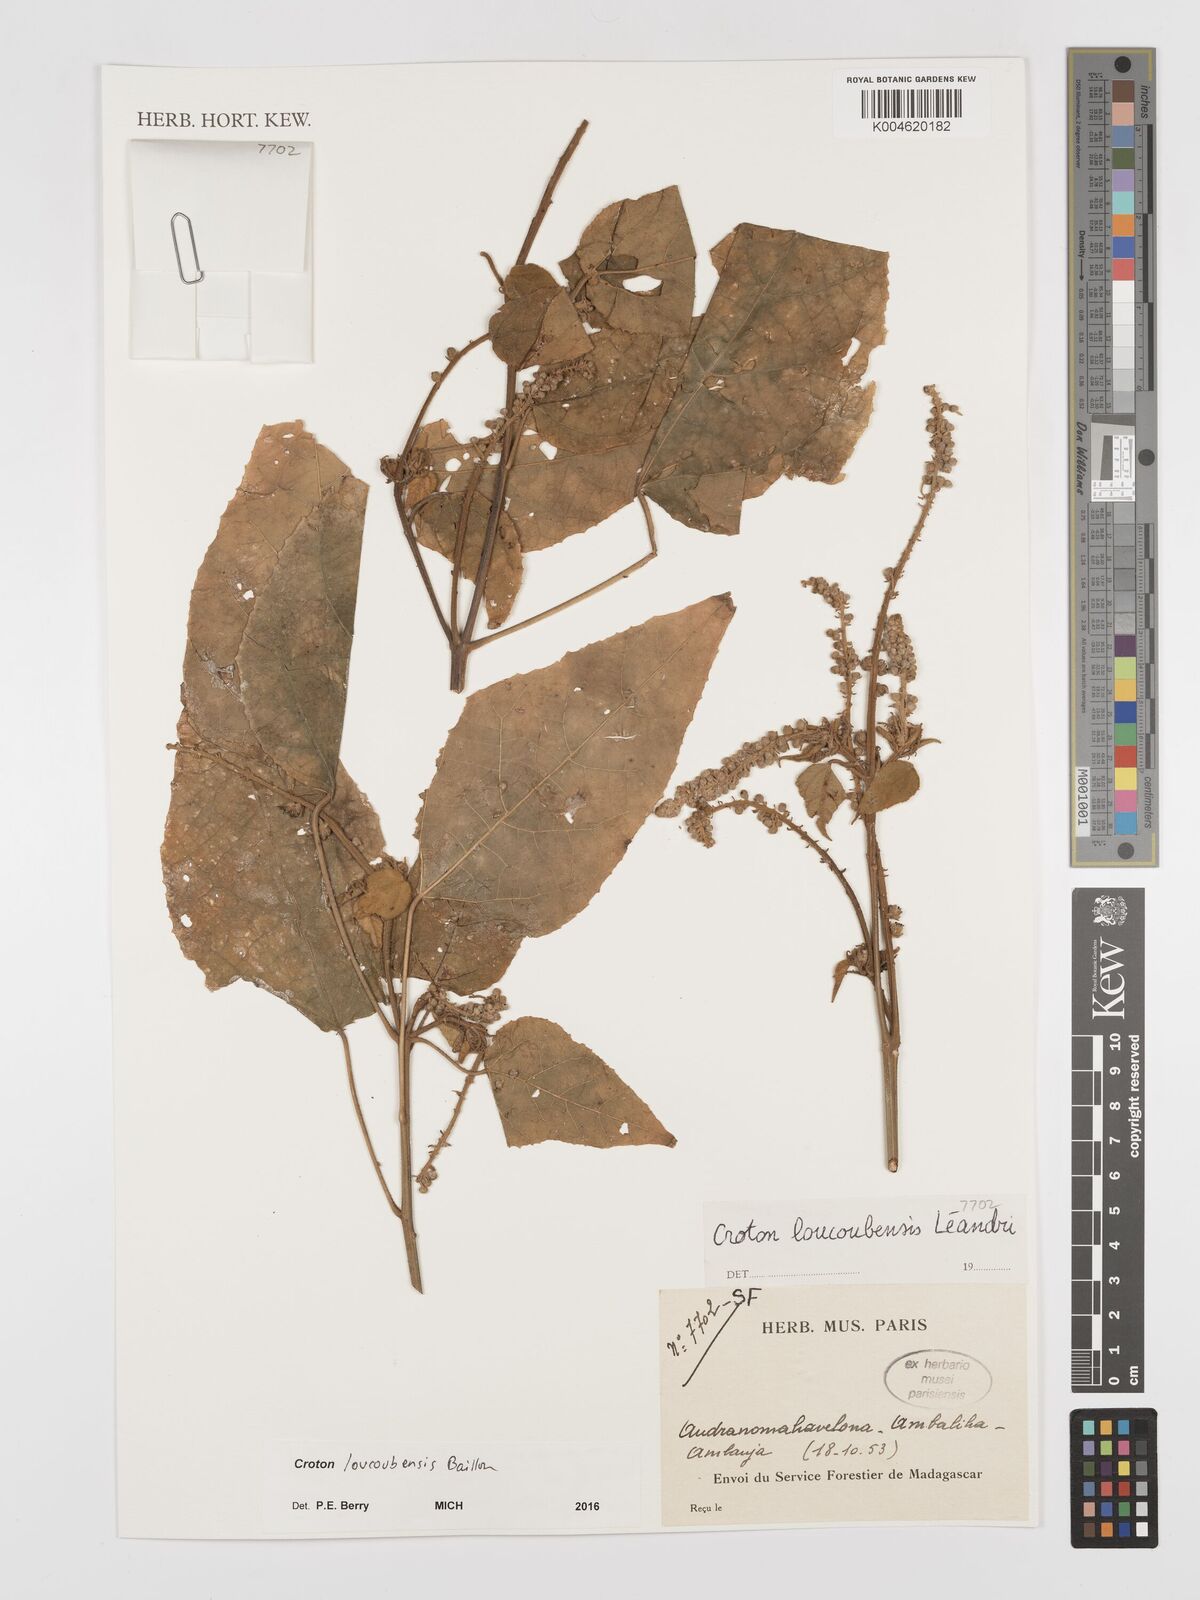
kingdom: Plantae
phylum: Tracheophyta
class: Magnoliopsida
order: Malpighiales
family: Euphorbiaceae
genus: Croton
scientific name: Croton loucoubensis
